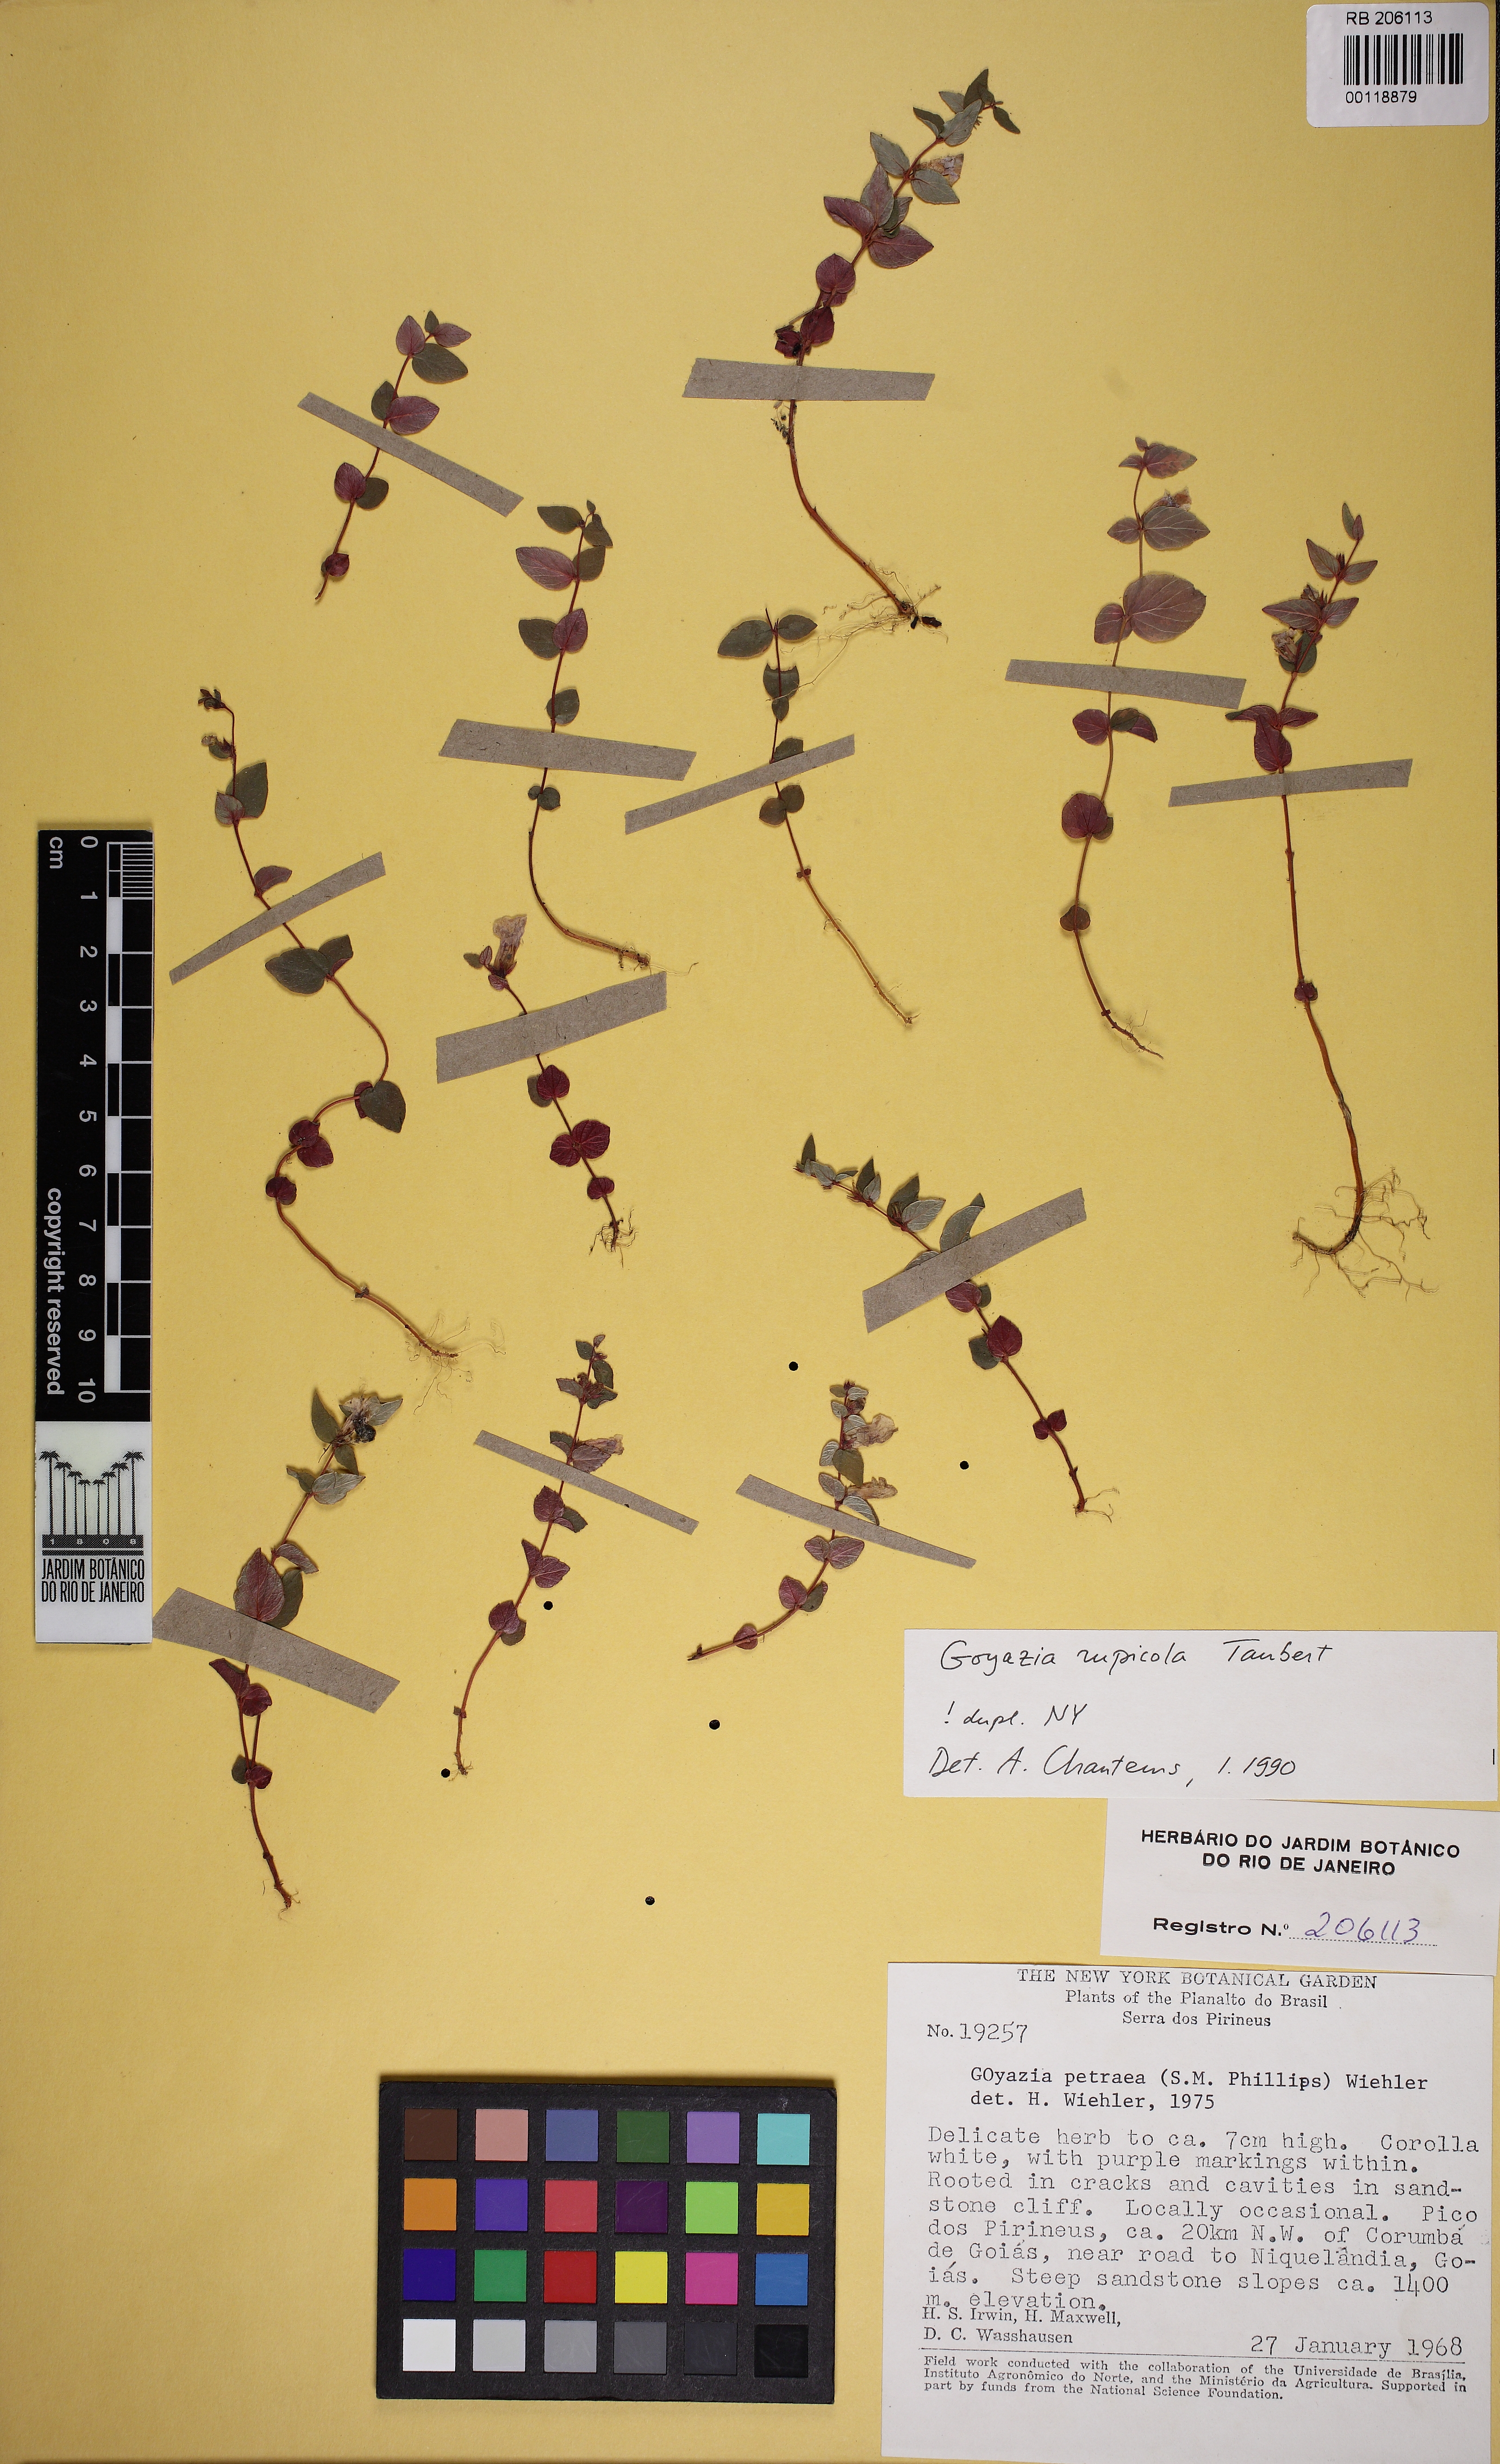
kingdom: Plantae
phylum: Tracheophyta
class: Magnoliopsida
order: Lamiales
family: Gesneriaceae
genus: Goyazia
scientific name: Goyazia rupicola
